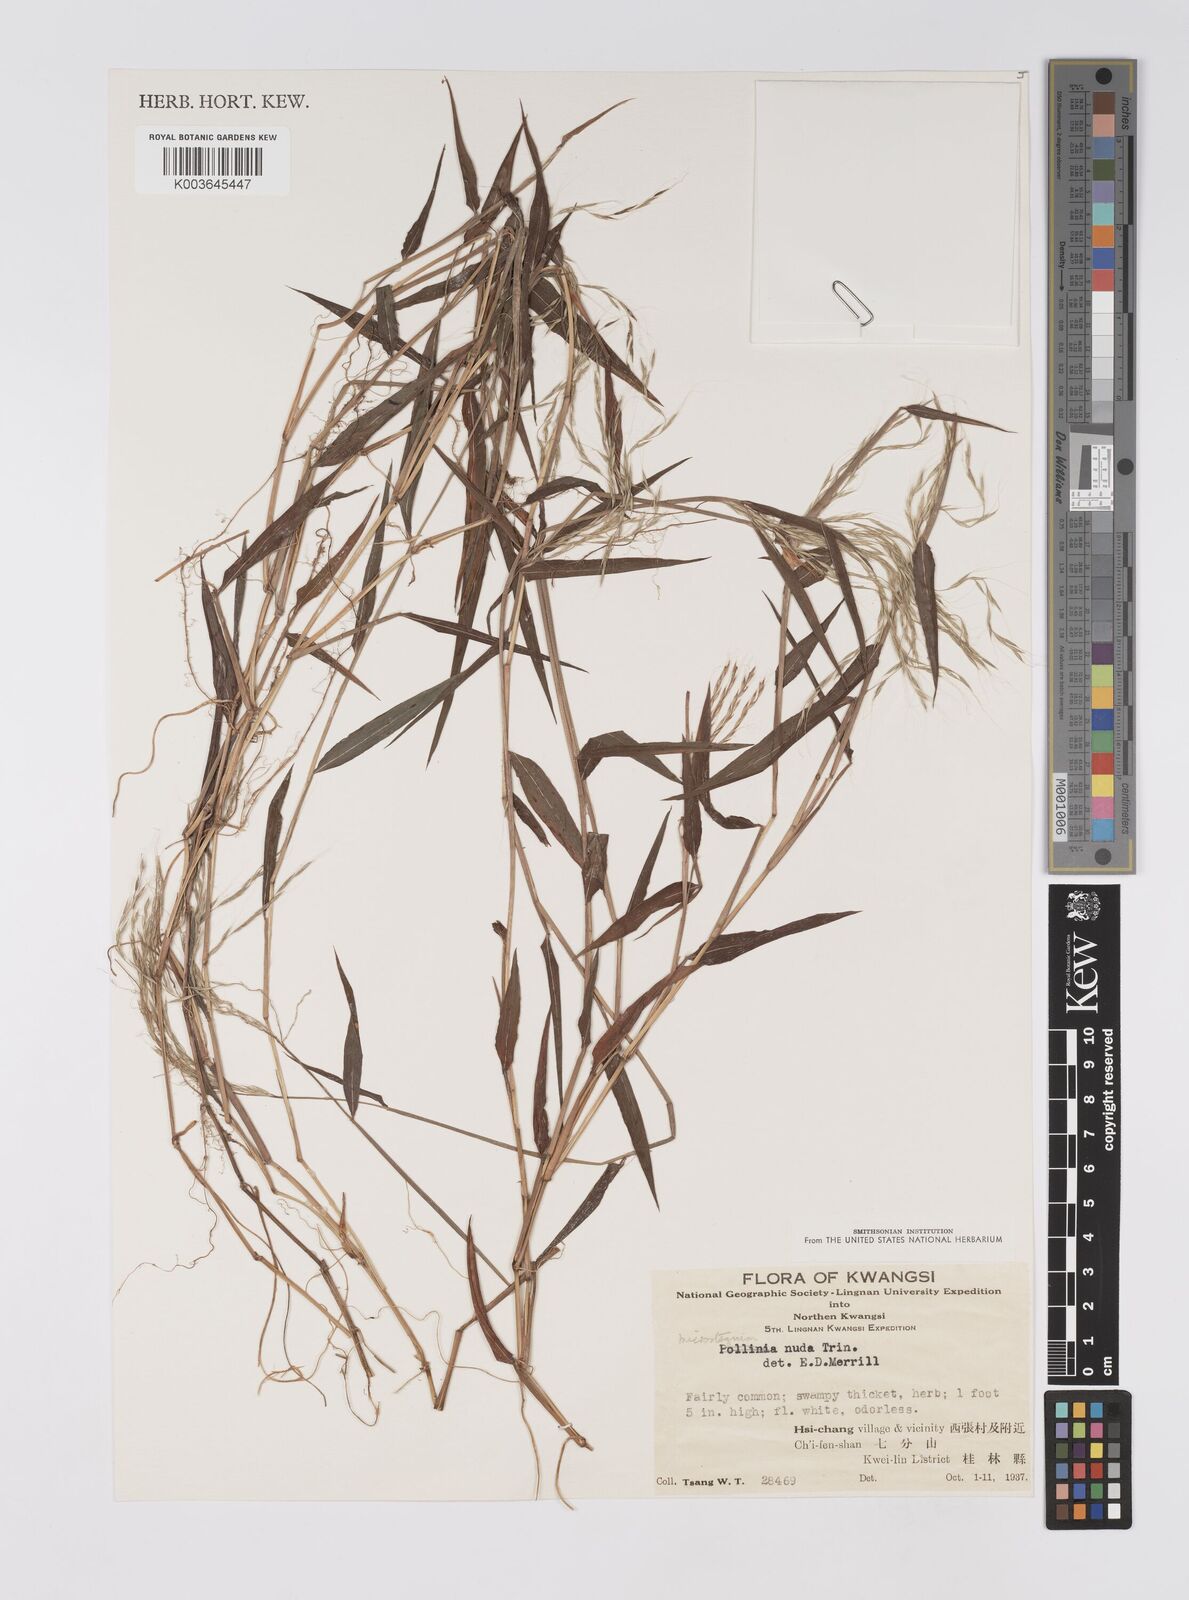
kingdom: Plantae
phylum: Tracheophyta
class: Liliopsida
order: Poales
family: Poaceae
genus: Microstegium
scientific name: Microstegium nudum
